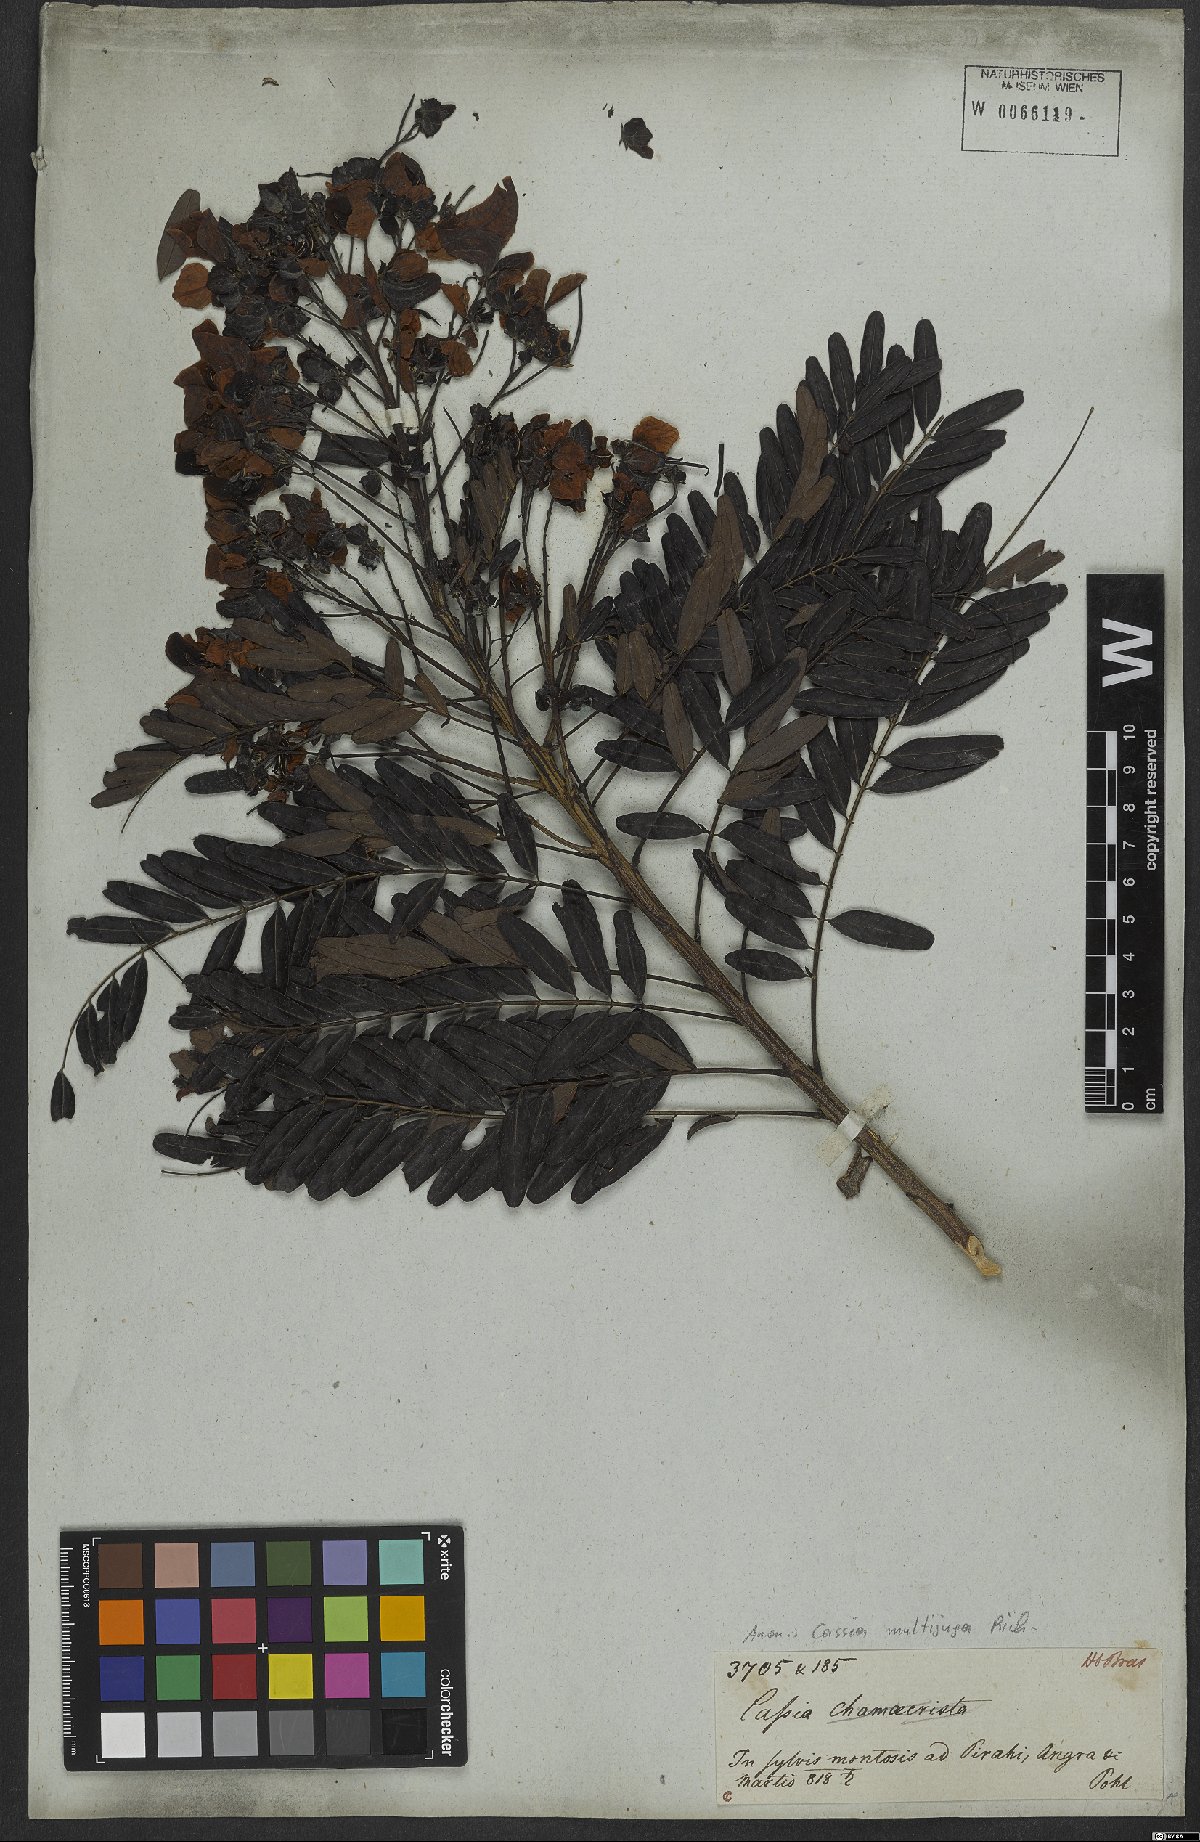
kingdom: Plantae
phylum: Tracheophyta
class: Magnoliopsida
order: Fabales
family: Fabaceae
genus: Senna
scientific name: Senna multijuga
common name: False sicklepod
